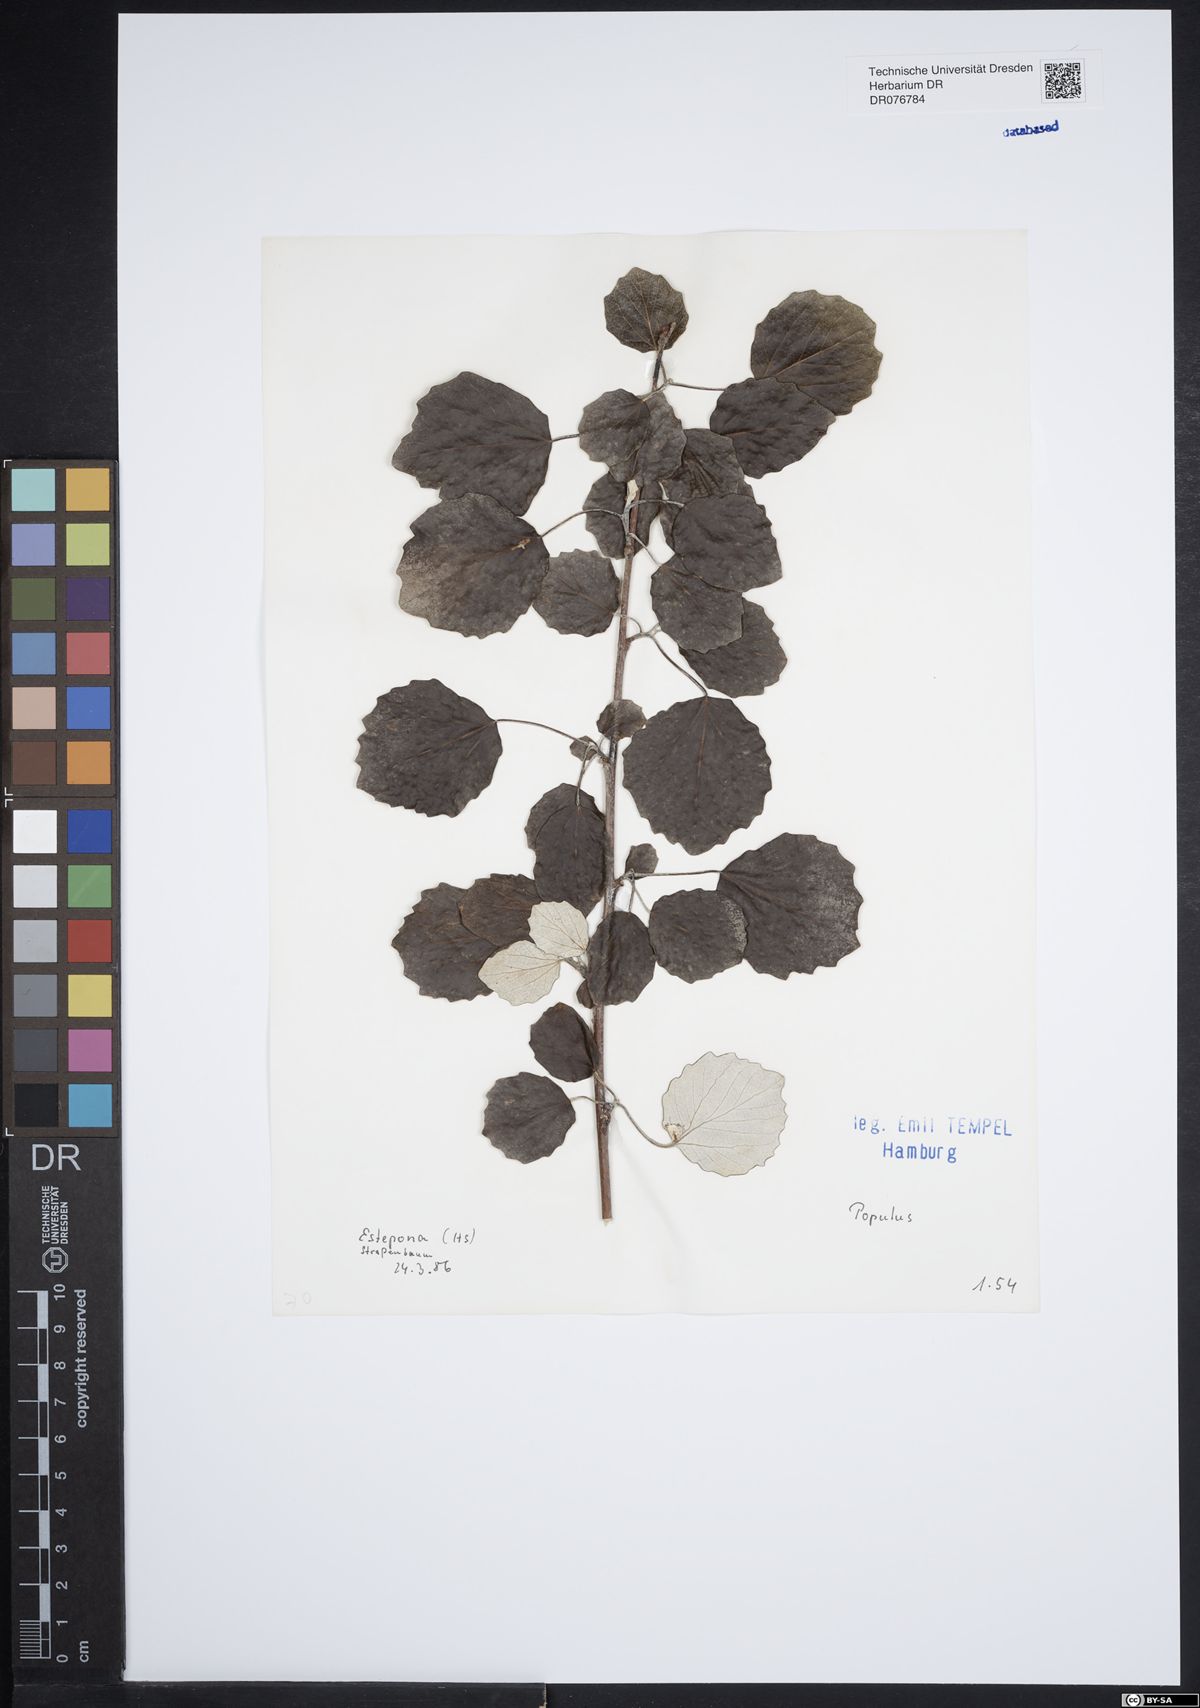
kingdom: Plantae
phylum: Tracheophyta
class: Magnoliopsida
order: Malpighiales
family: Salicaceae
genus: Populus
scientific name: Populus
